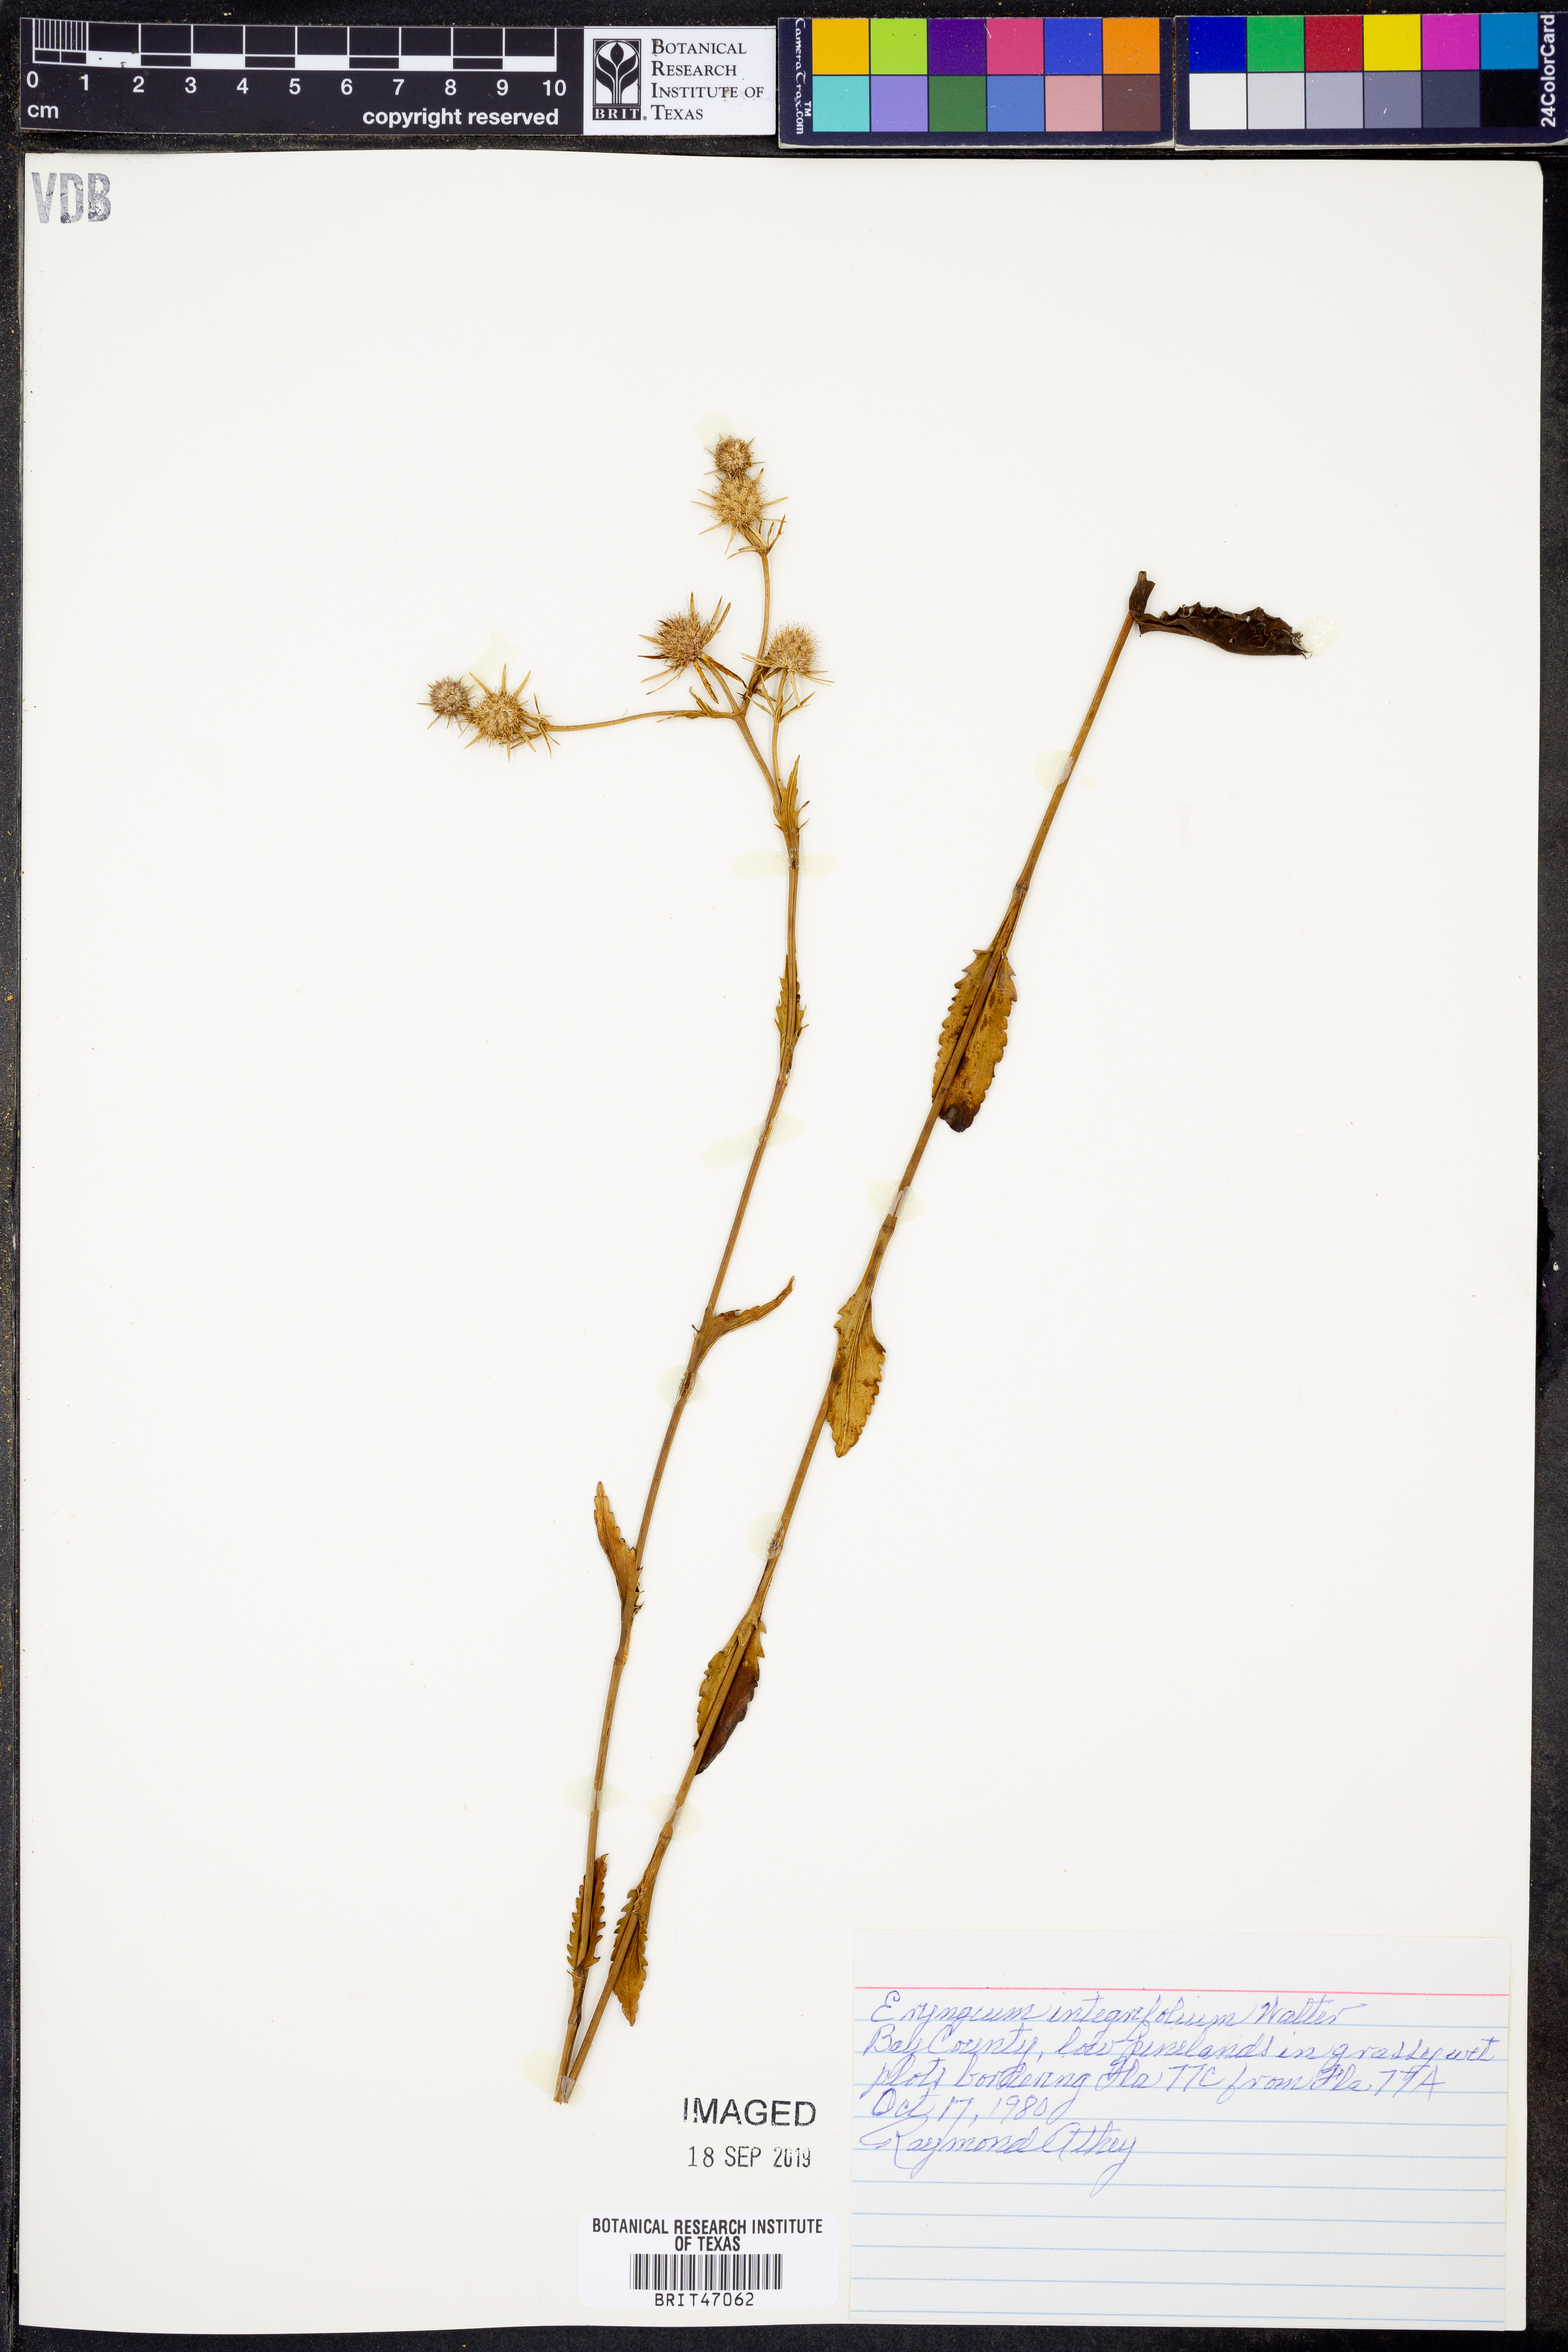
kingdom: Plantae
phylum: Tracheophyta
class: Magnoliopsida
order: Apiales
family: Apiaceae
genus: Eryngium
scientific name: Eryngium integrifolium
